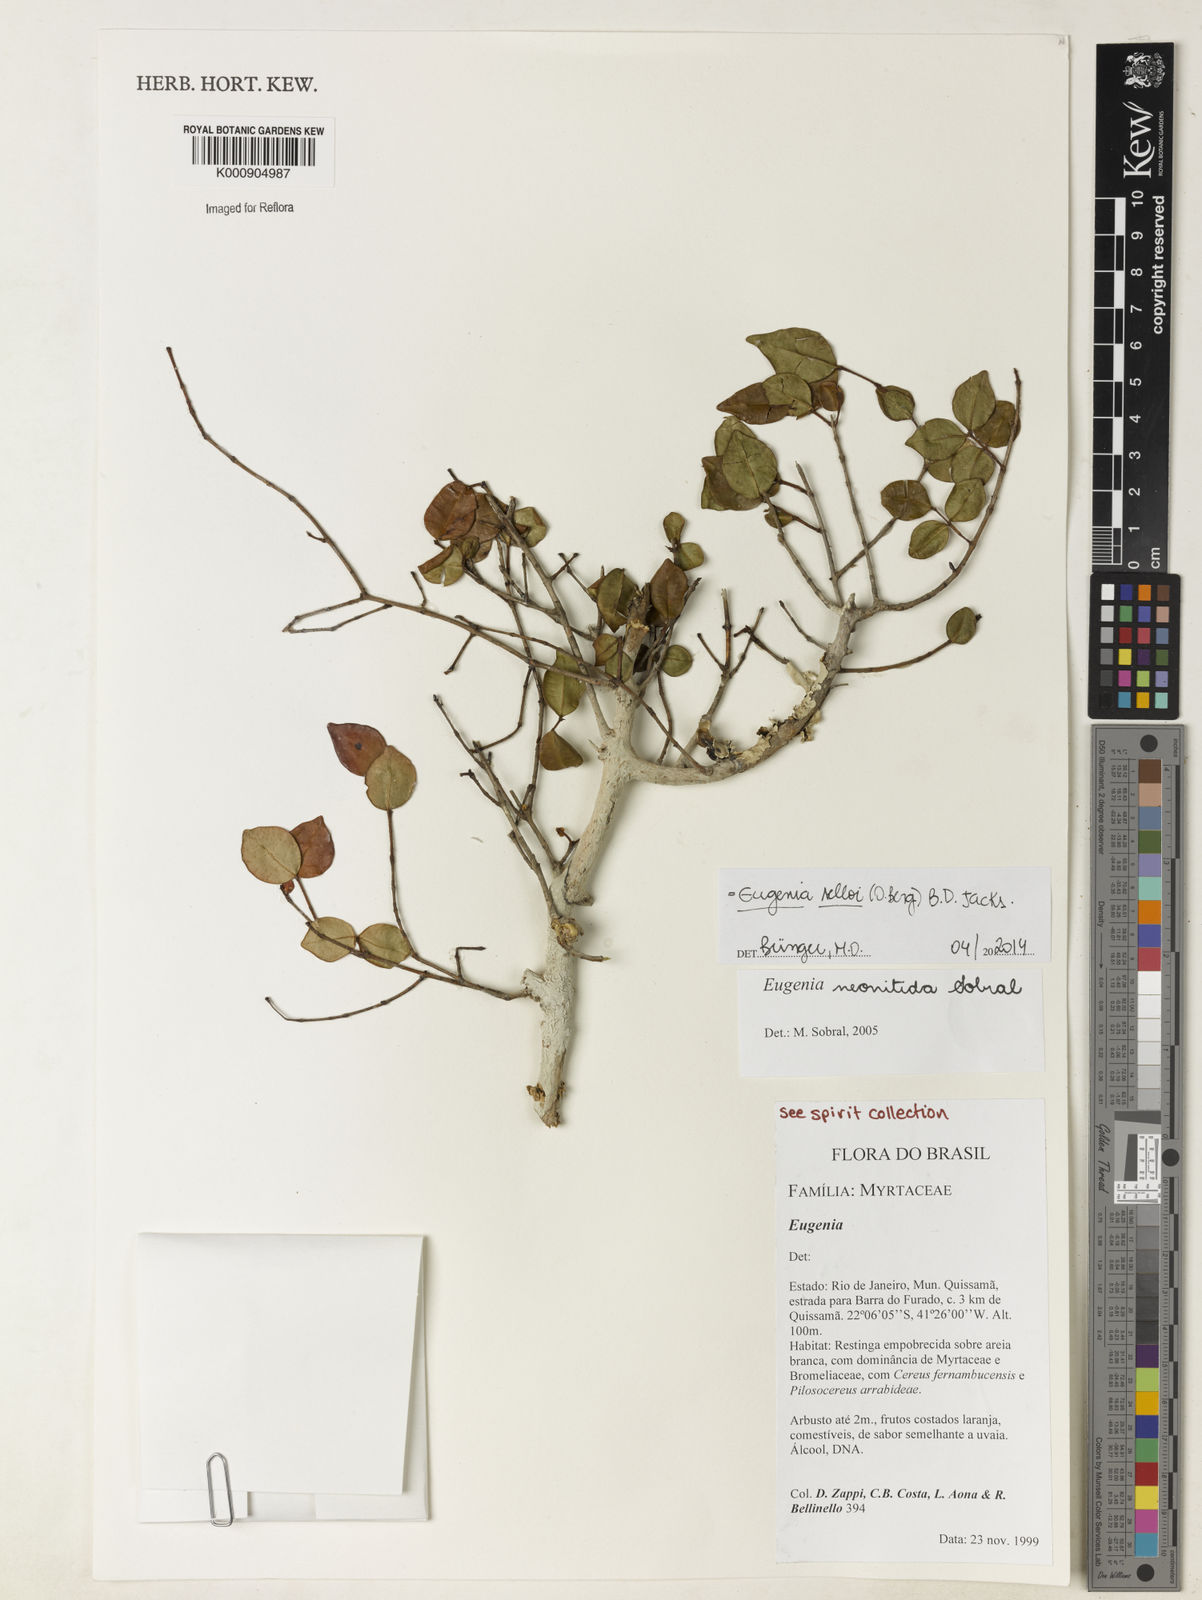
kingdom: Plantae
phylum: Tracheophyta
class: Magnoliopsida
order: Myrtales
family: Myrtaceae
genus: Eugenia
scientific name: Eugenia selloi
